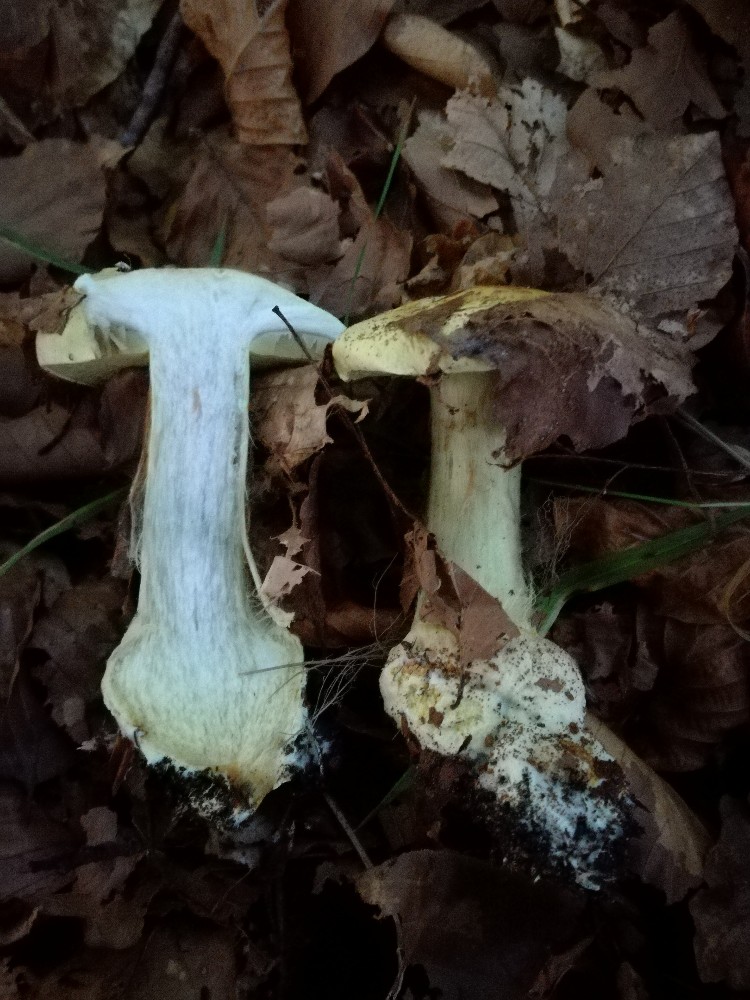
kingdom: Fungi
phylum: Basidiomycota
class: Agaricomycetes
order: Agaricales
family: Cortinariaceae
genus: Calonarius
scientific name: Calonarius elegantissimus
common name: orangegylden slørhat
